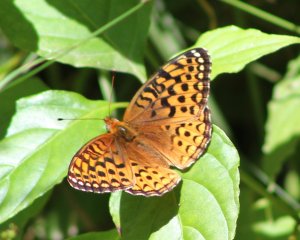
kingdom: Animalia
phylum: Arthropoda
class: Insecta
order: Lepidoptera
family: Nymphalidae
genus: Speyeria
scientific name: Speyeria atlantis
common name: Atlantis Fritillary
